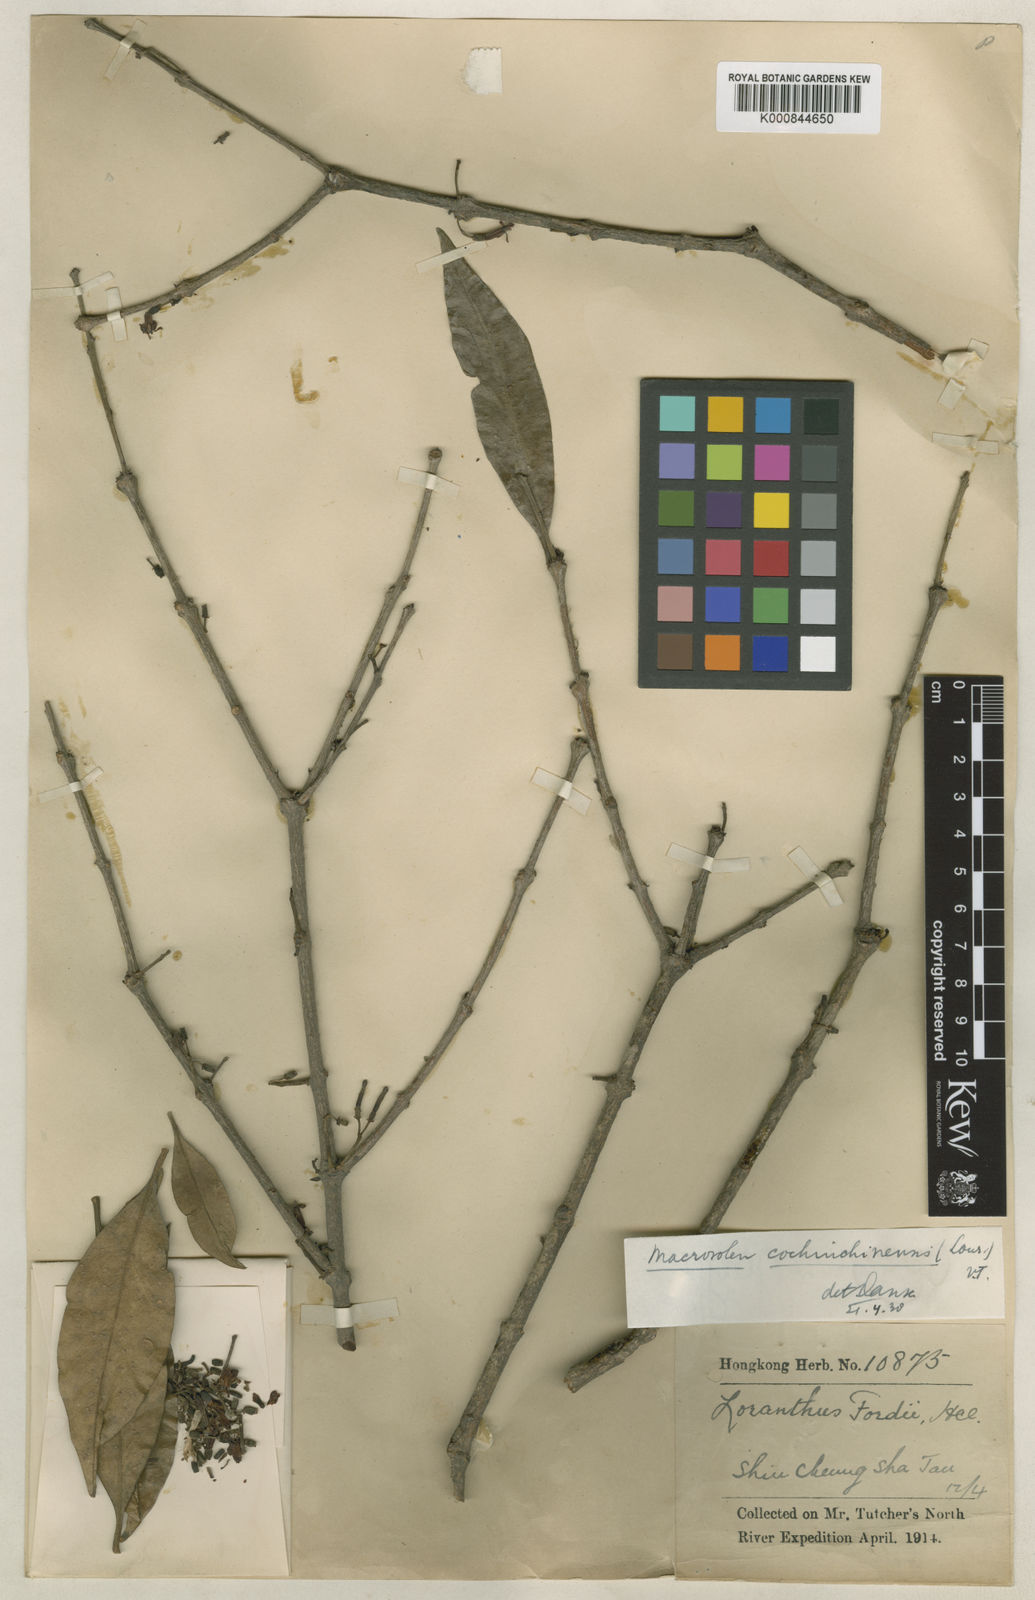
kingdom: Plantae
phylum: Tracheophyta
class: Magnoliopsida
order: Santalales
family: Loranthaceae
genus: Macrosolen
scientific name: Macrosolen cochinchinensis
